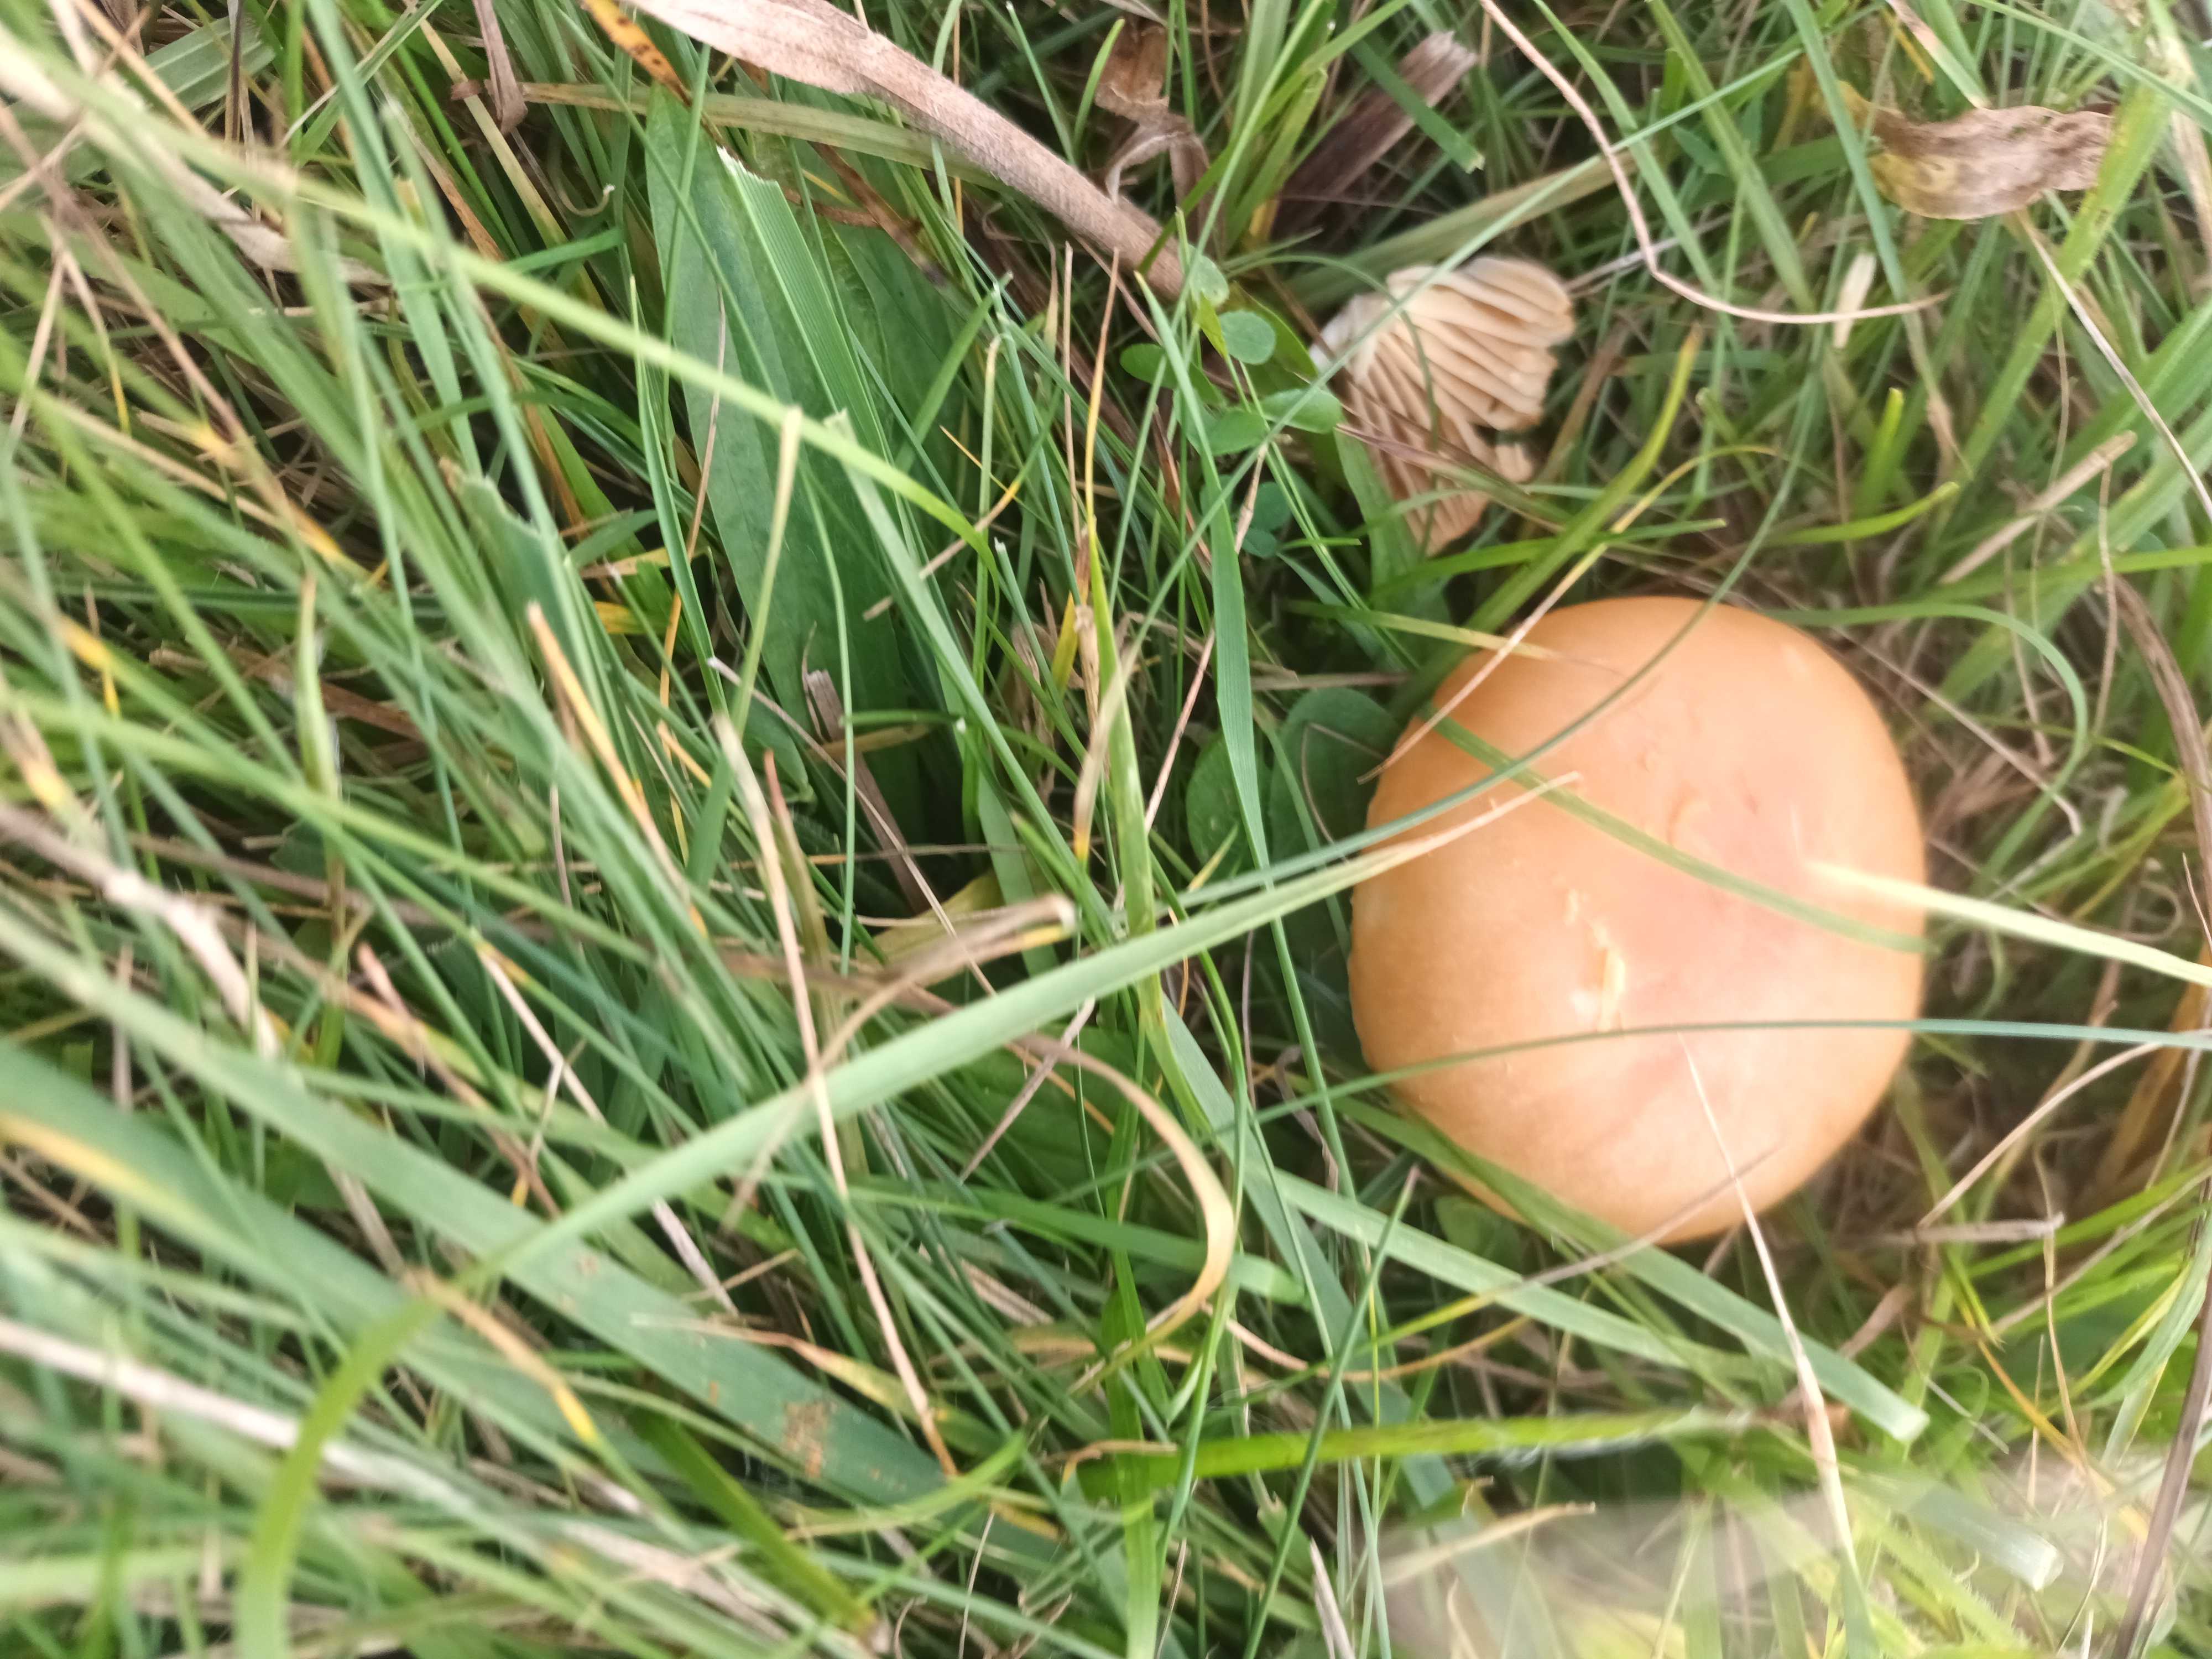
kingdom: Fungi
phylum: Basidiomycota
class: Agaricomycetes
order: Agaricales
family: Hygrophoraceae
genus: Cuphophyllus
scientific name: Cuphophyllus pratensis
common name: eng-vokshat
